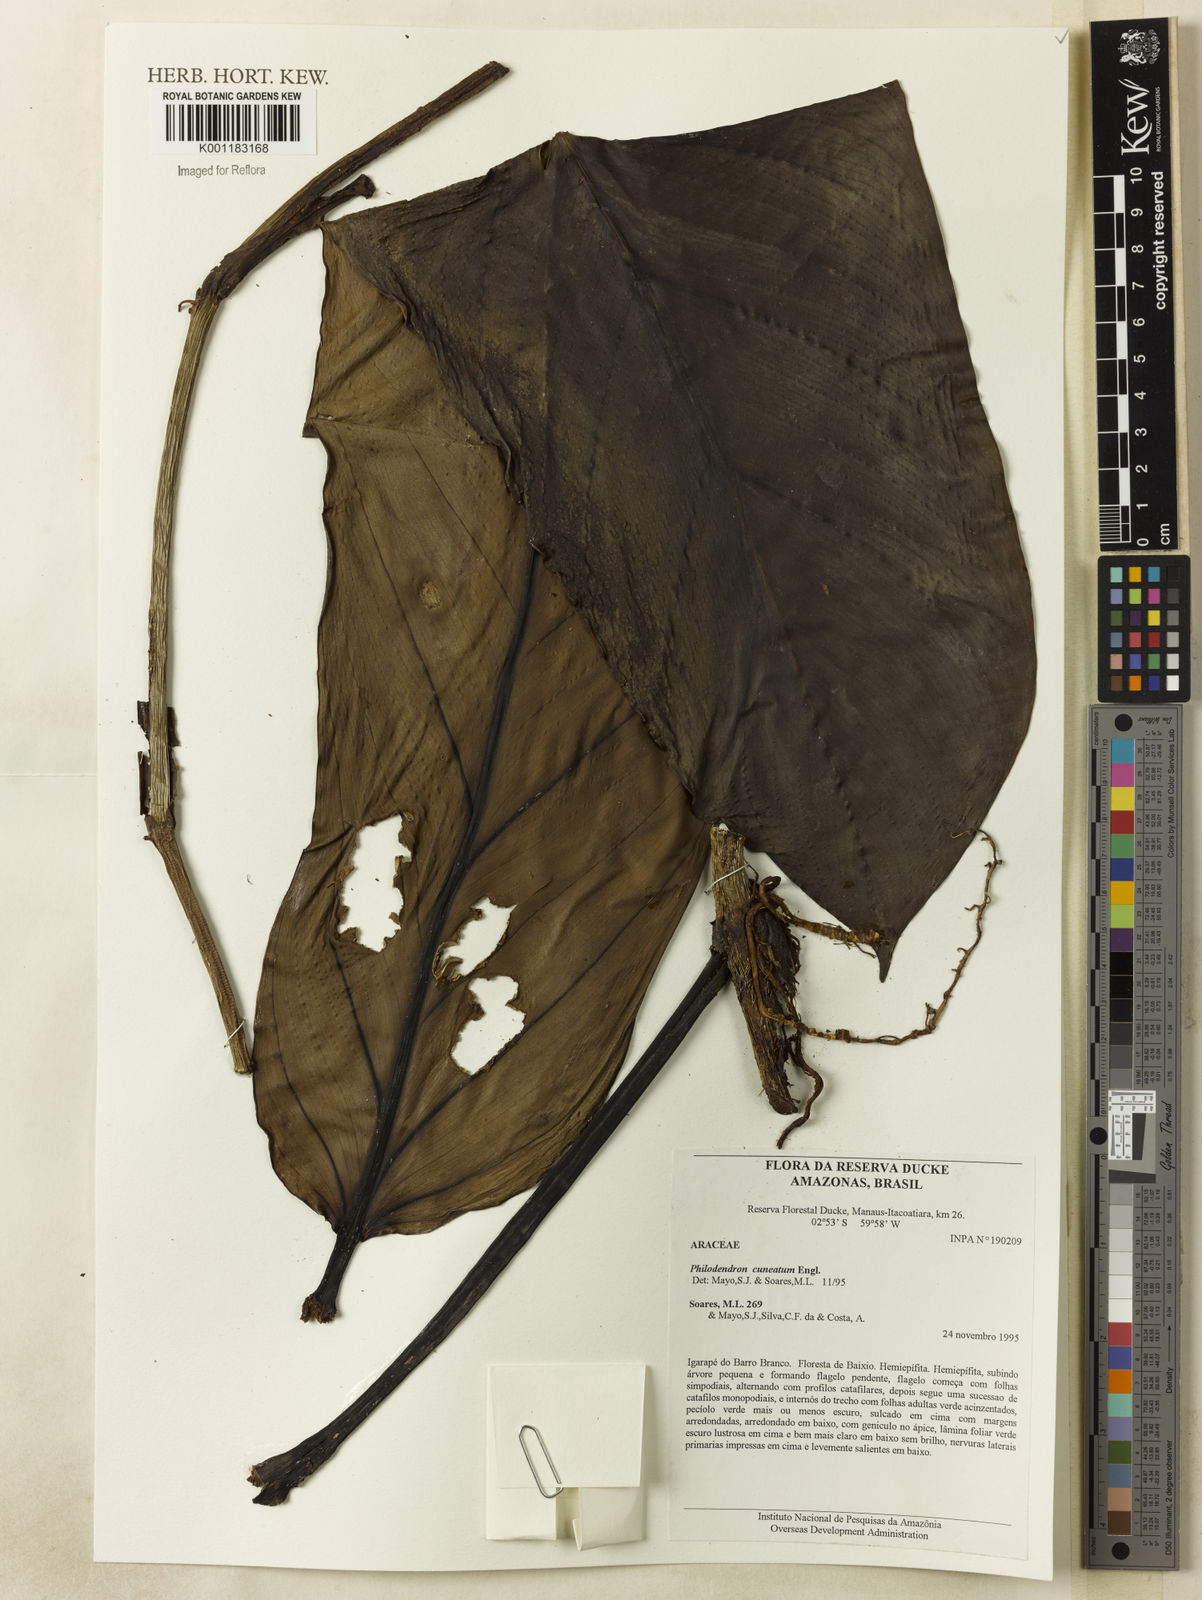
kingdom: Plantae
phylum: Tracheophyta
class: Liliopsida
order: Alismatales
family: Araceae
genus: Philodendron
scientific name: Philodendron cuneatum
